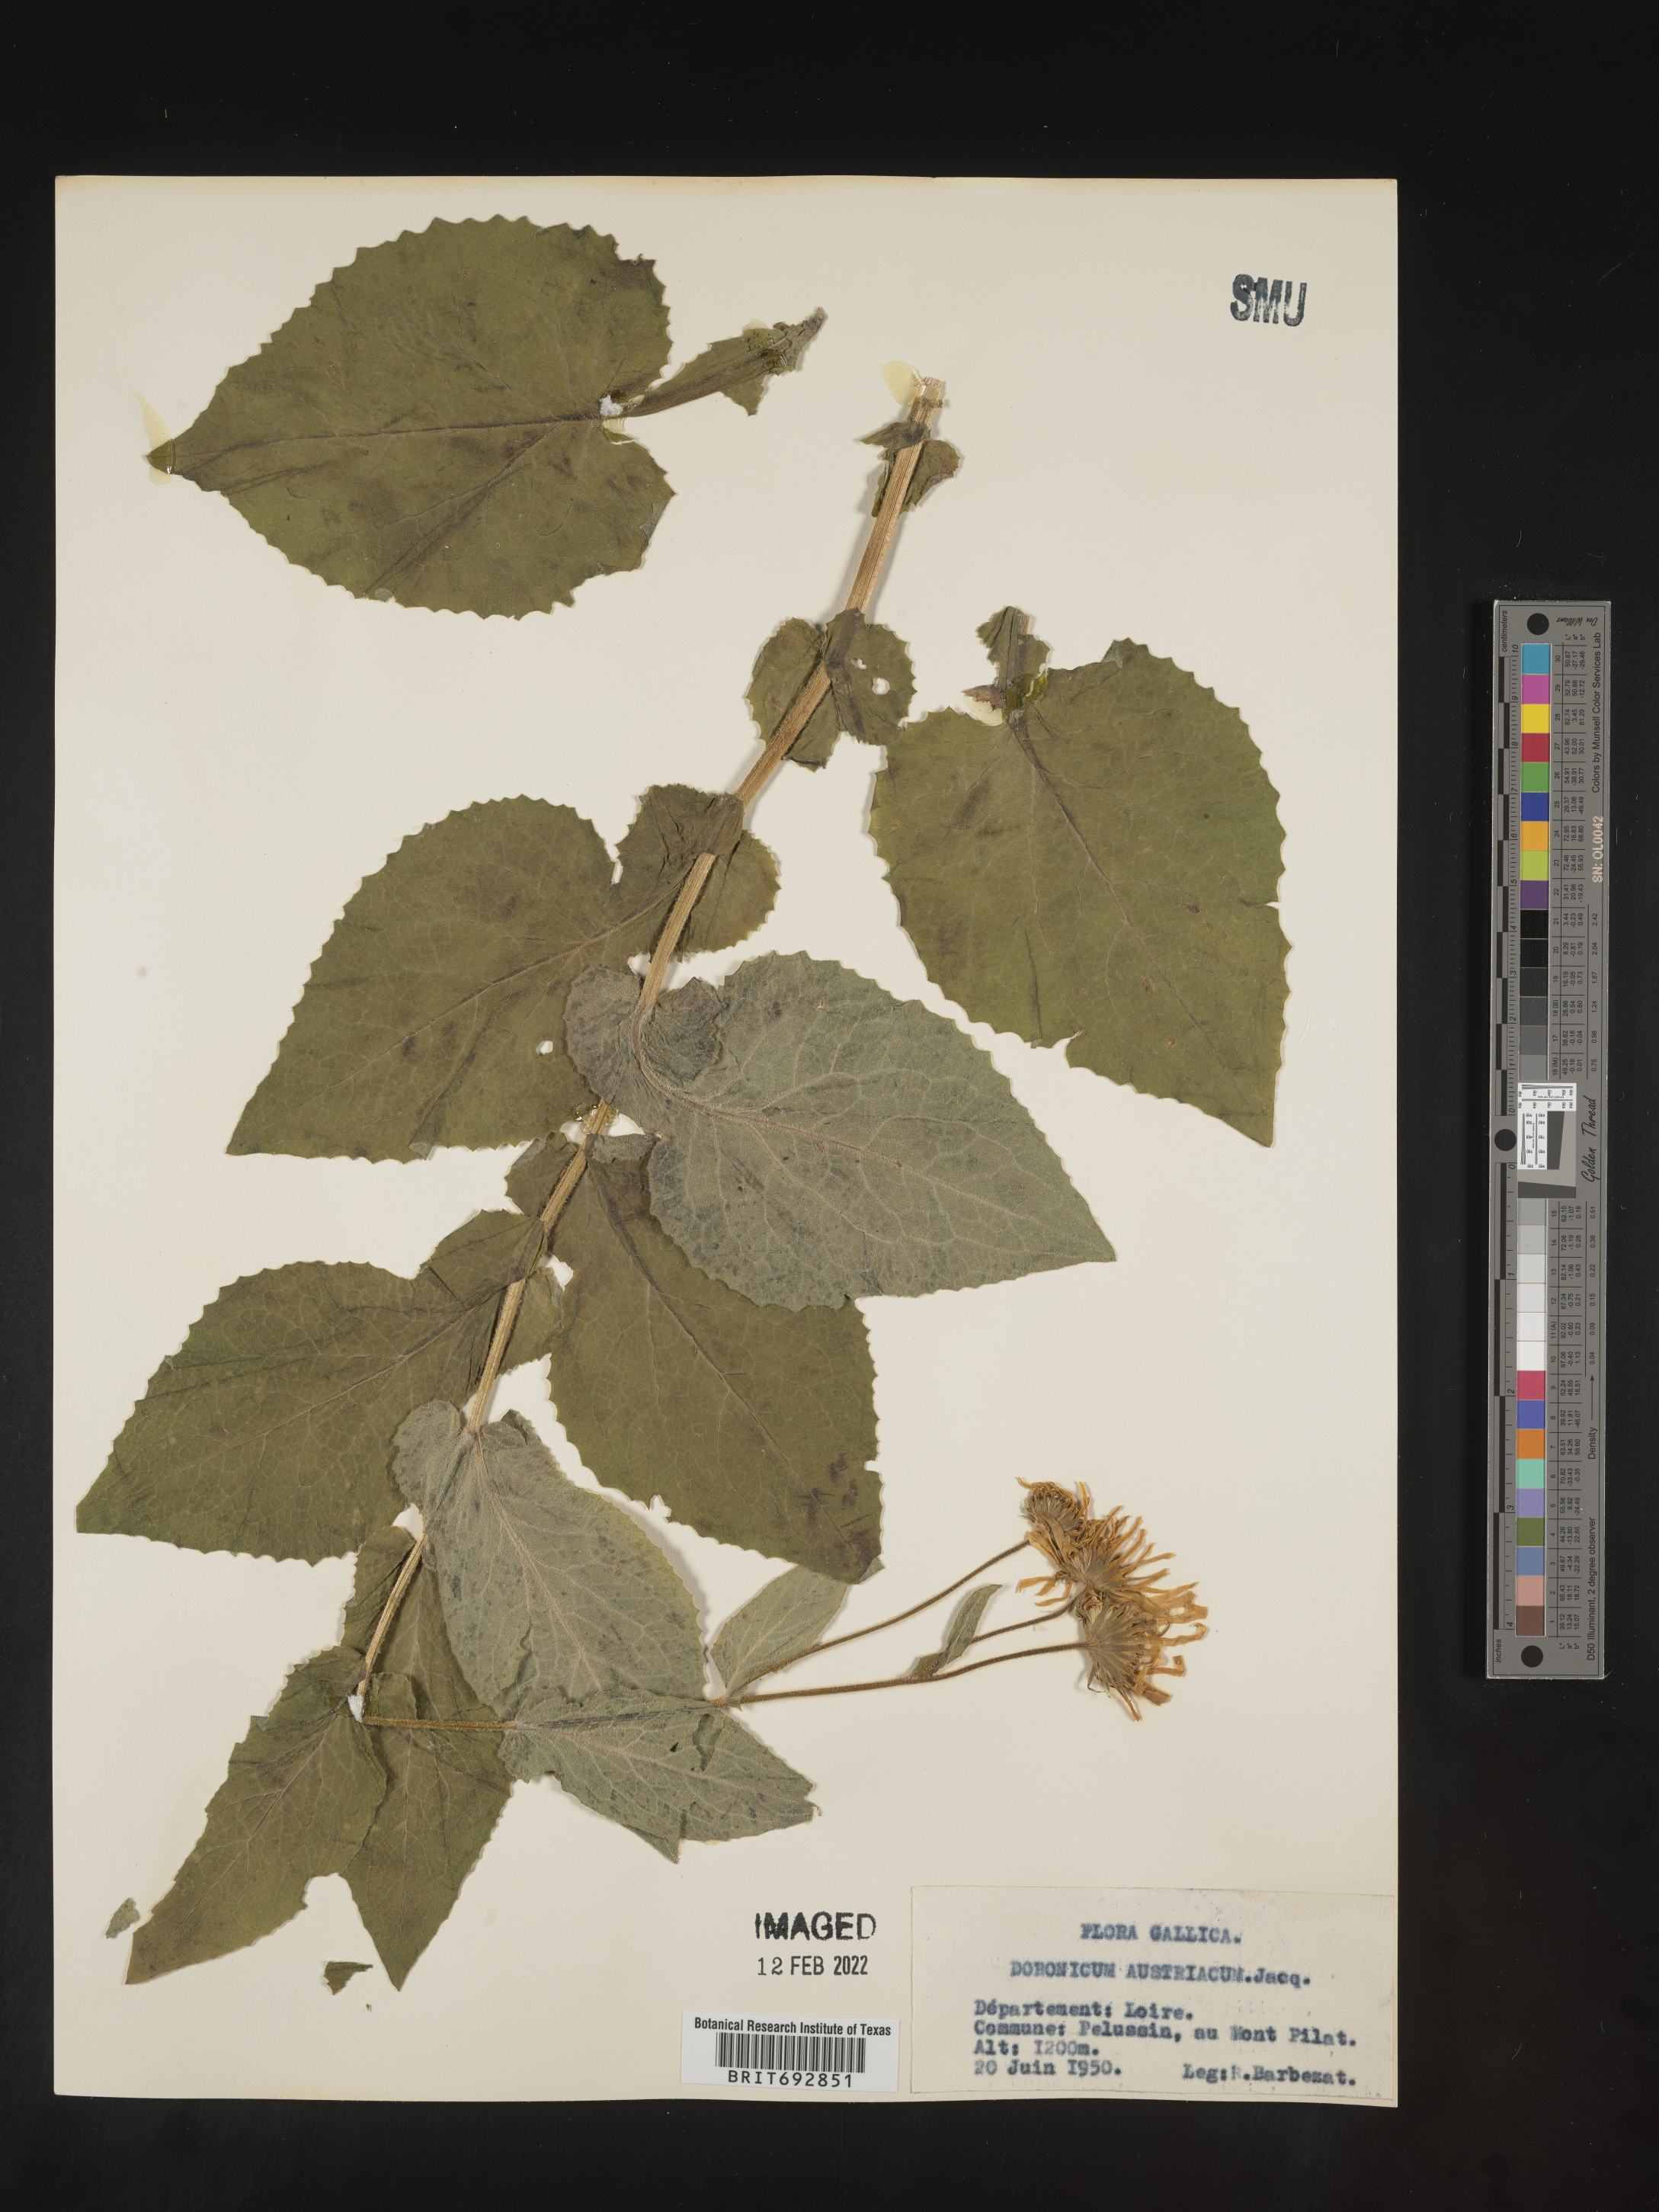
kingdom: Plantae
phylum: Tracheophyta
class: Magnoliopsida
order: Asterales
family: Asteraceae
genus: Doronicum
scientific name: Doronicum
